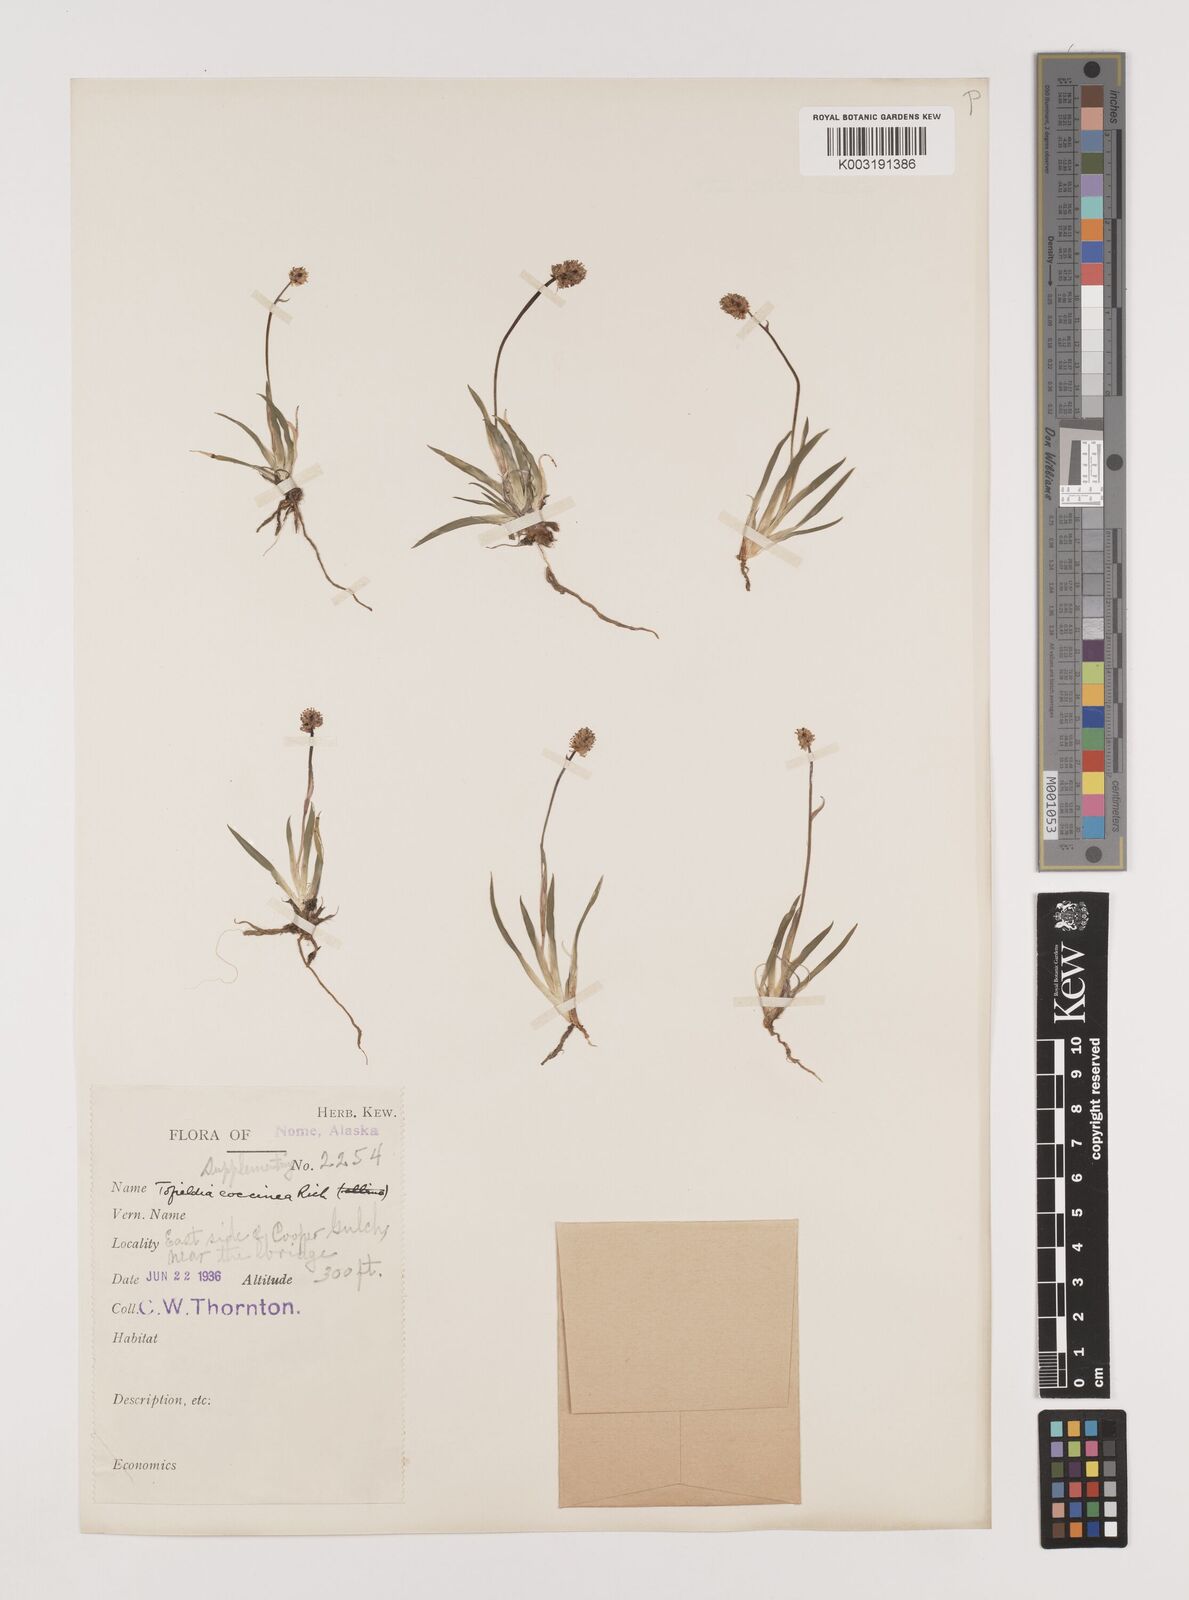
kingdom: Plantae
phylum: Tracheophyta
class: Liliopsida
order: Alismatales
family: Tofieldiaceae
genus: Tofieldia
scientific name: Tofieldia coccinea
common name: Northern false asphodel
